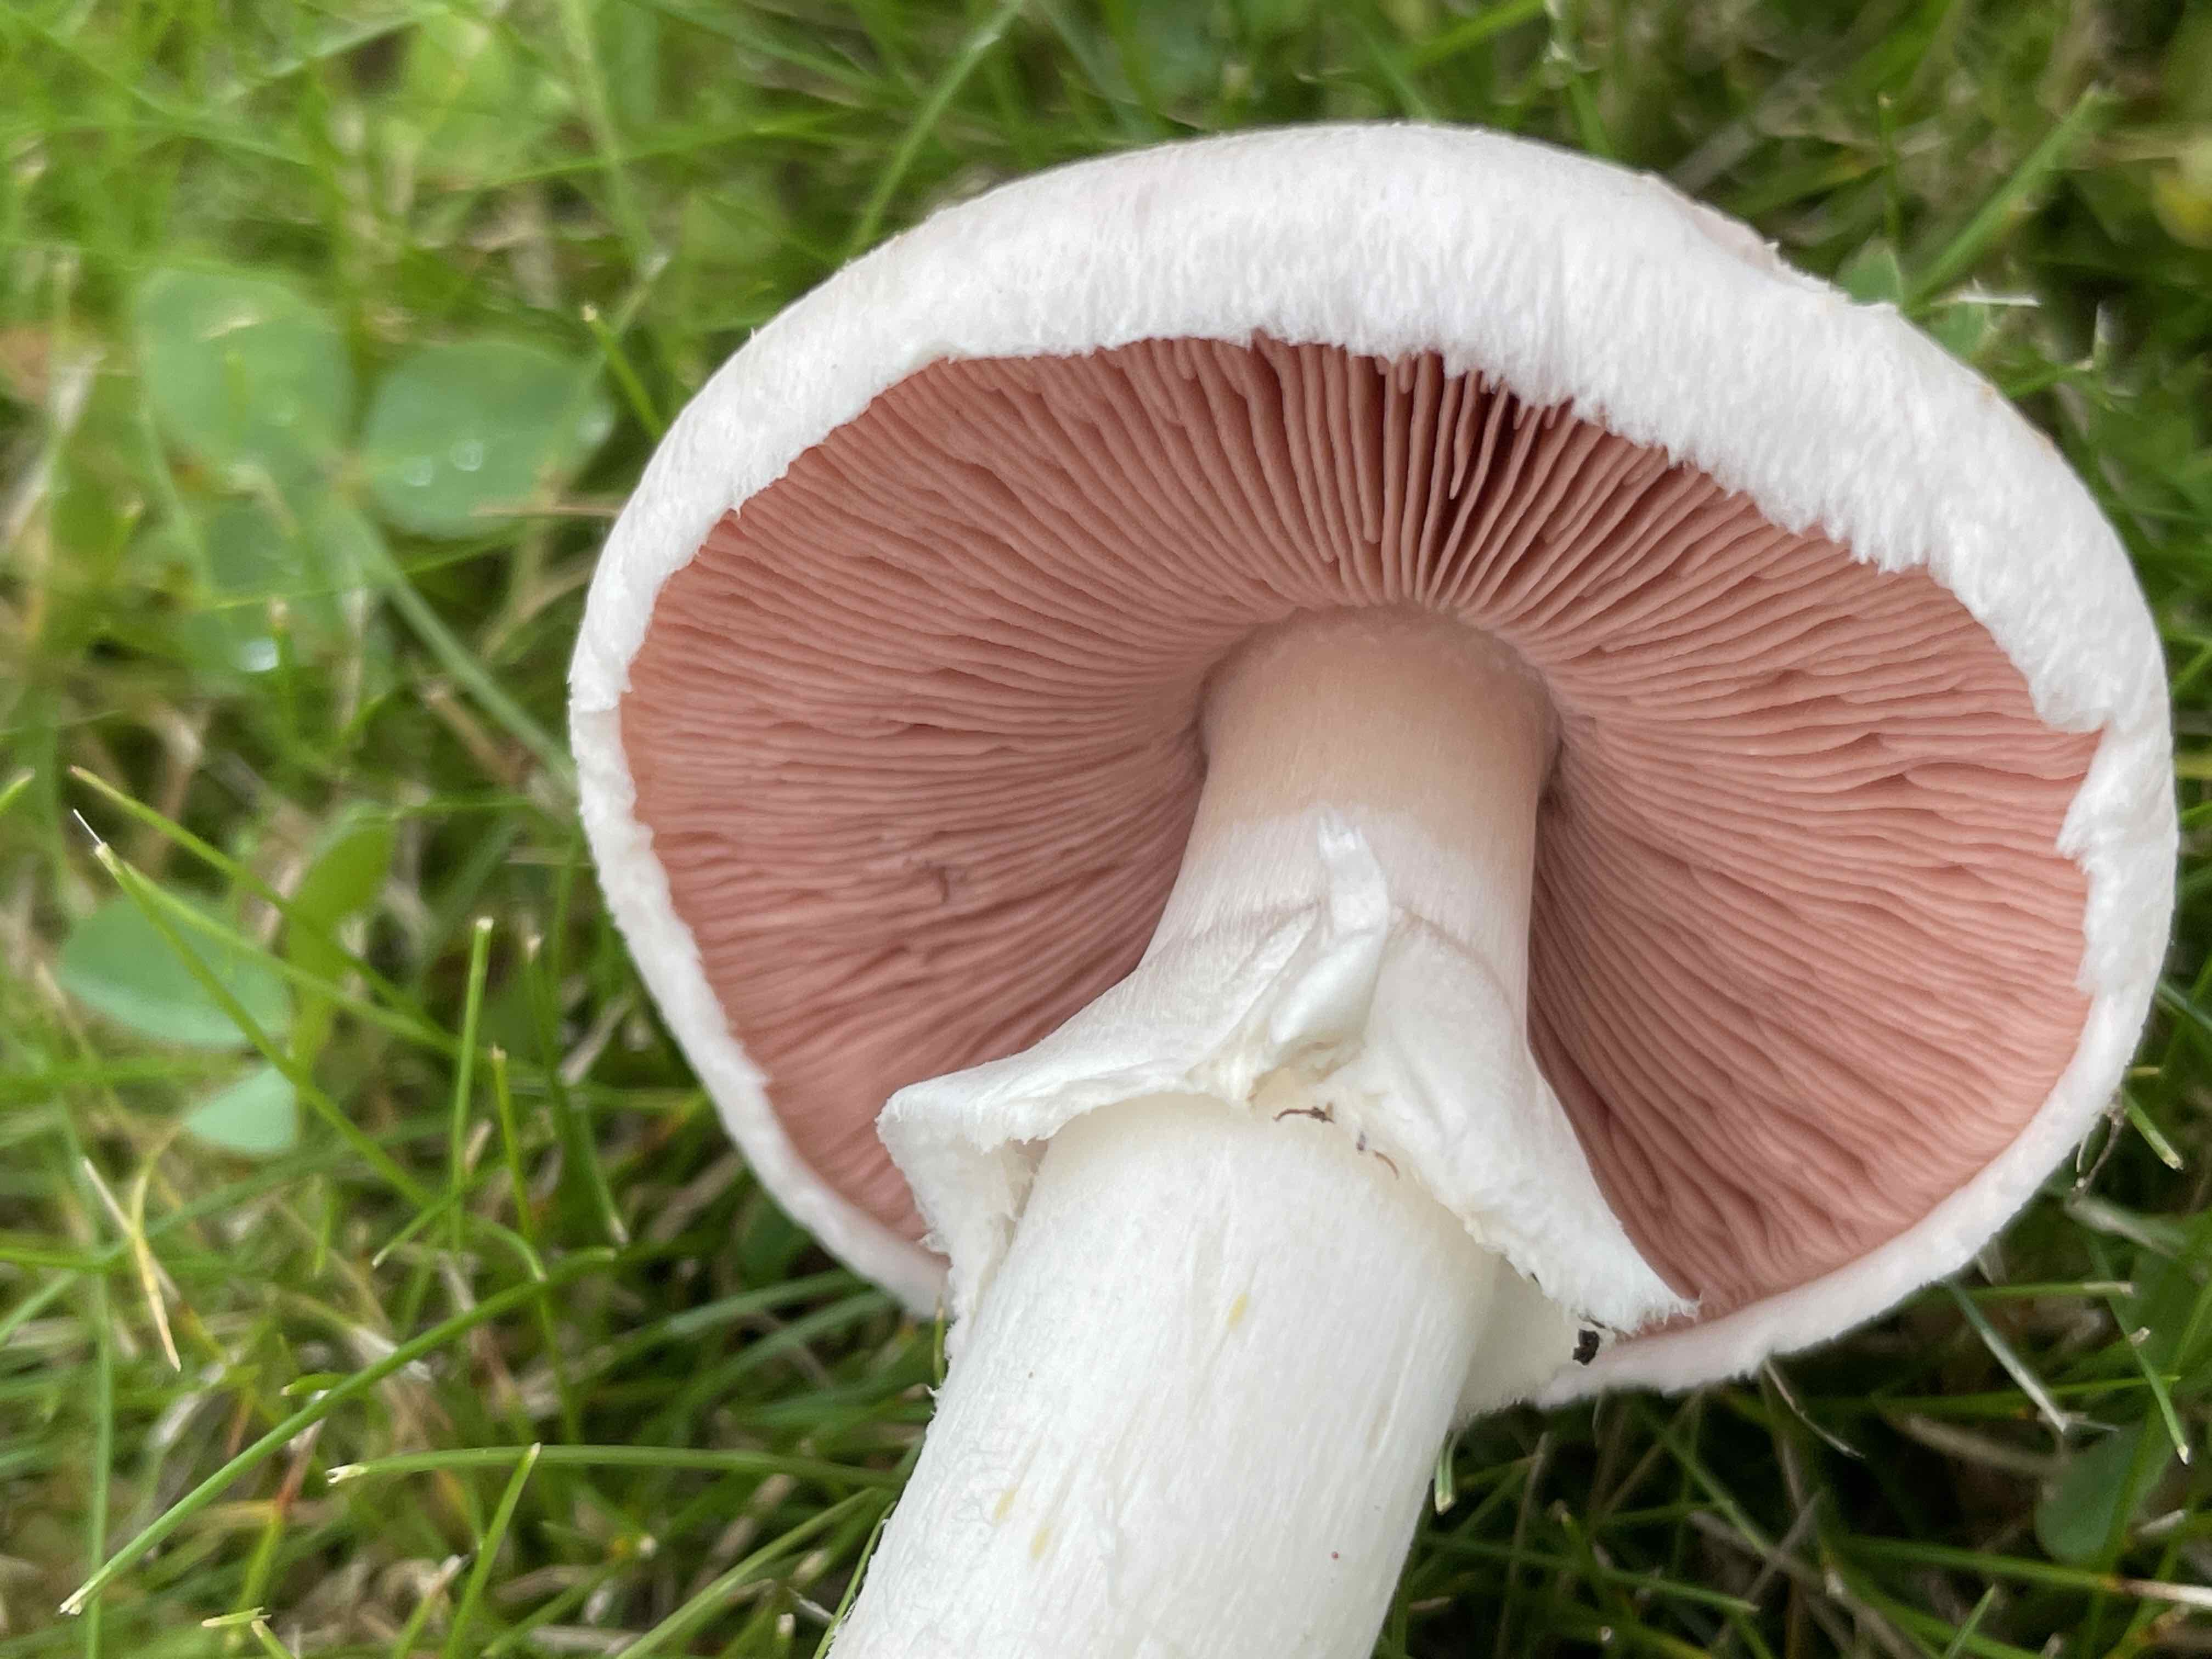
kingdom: Fungi
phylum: Basidiomycota
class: Agaricomycetes
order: Agaricales
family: Agaricaceae
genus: Agaricus
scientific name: Agaricus campestris
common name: mark-champignon
